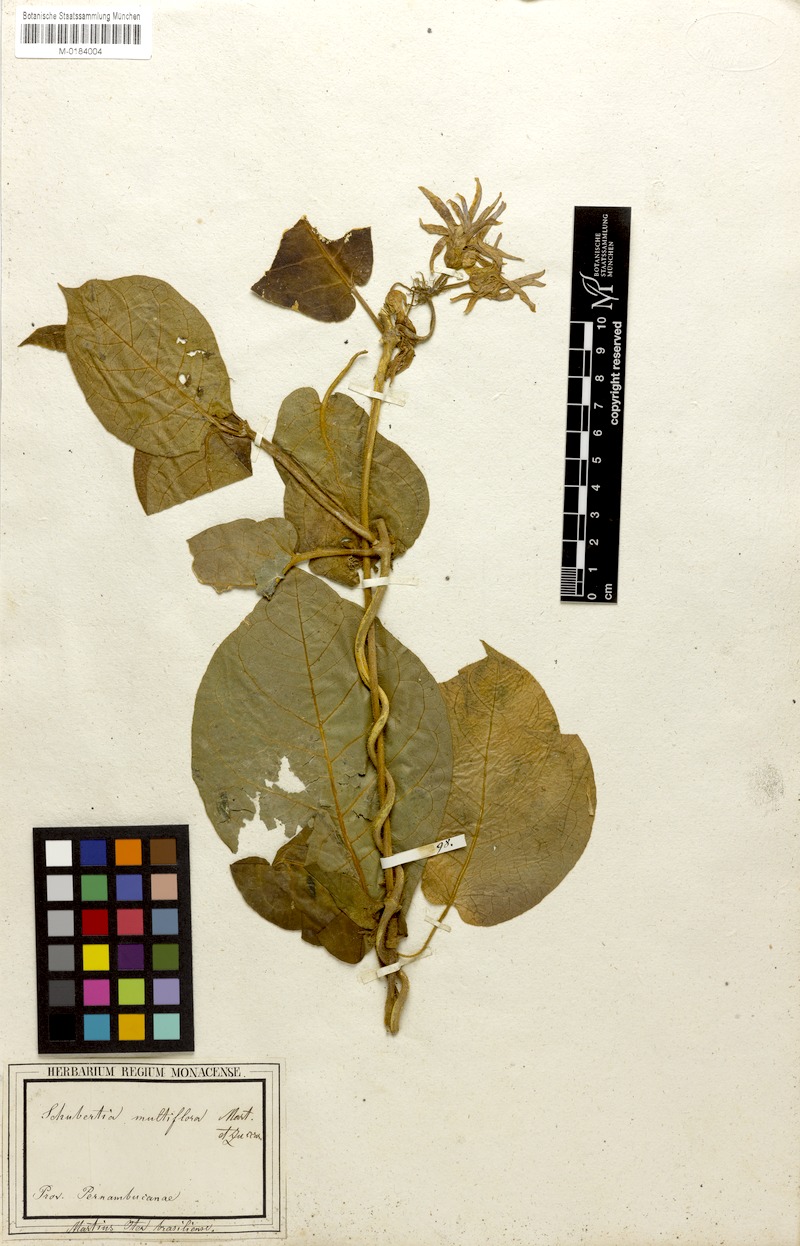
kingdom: Plantae
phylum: Tracheophyta
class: Magnoliopsida
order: Gentianales
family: Apocynaceae
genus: Schubertia
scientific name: Schubertia multiflora
